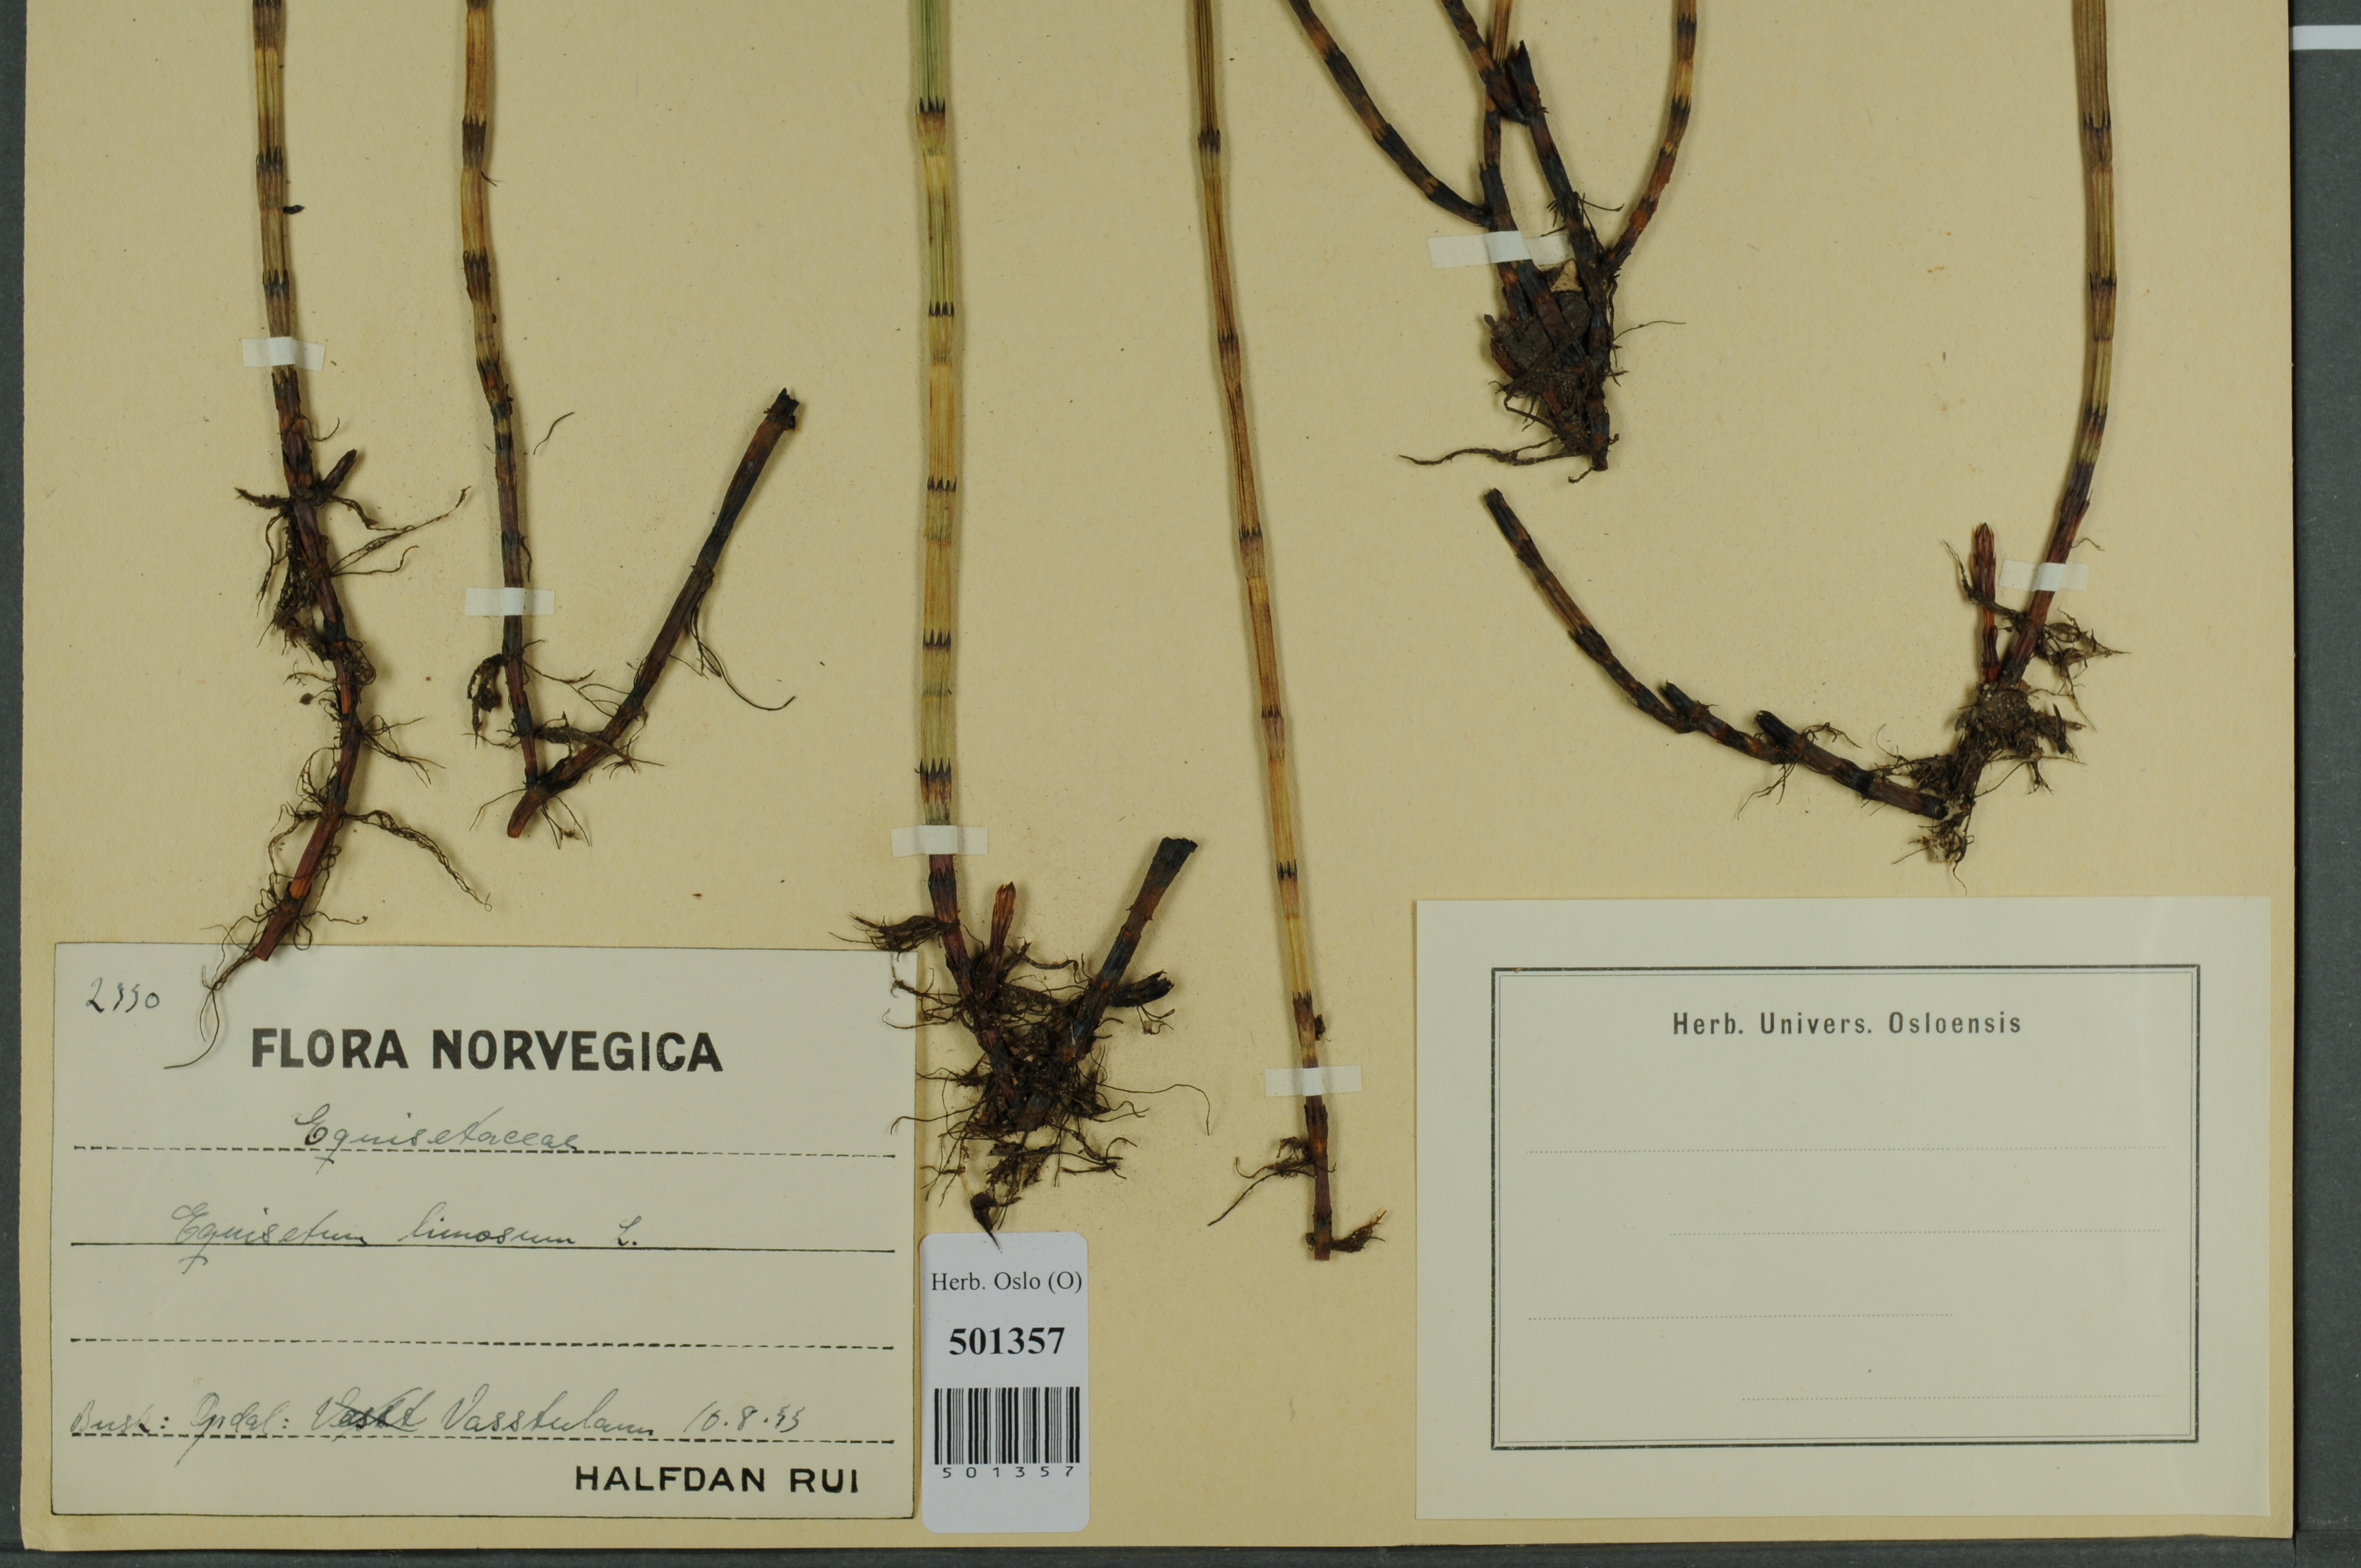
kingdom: Plantae
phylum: Tracheophyta
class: Polypodiopsida
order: Equisetales
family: Equisetaceae
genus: Equisetum
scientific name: Equisetum fluviatile
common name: Water horsetail
